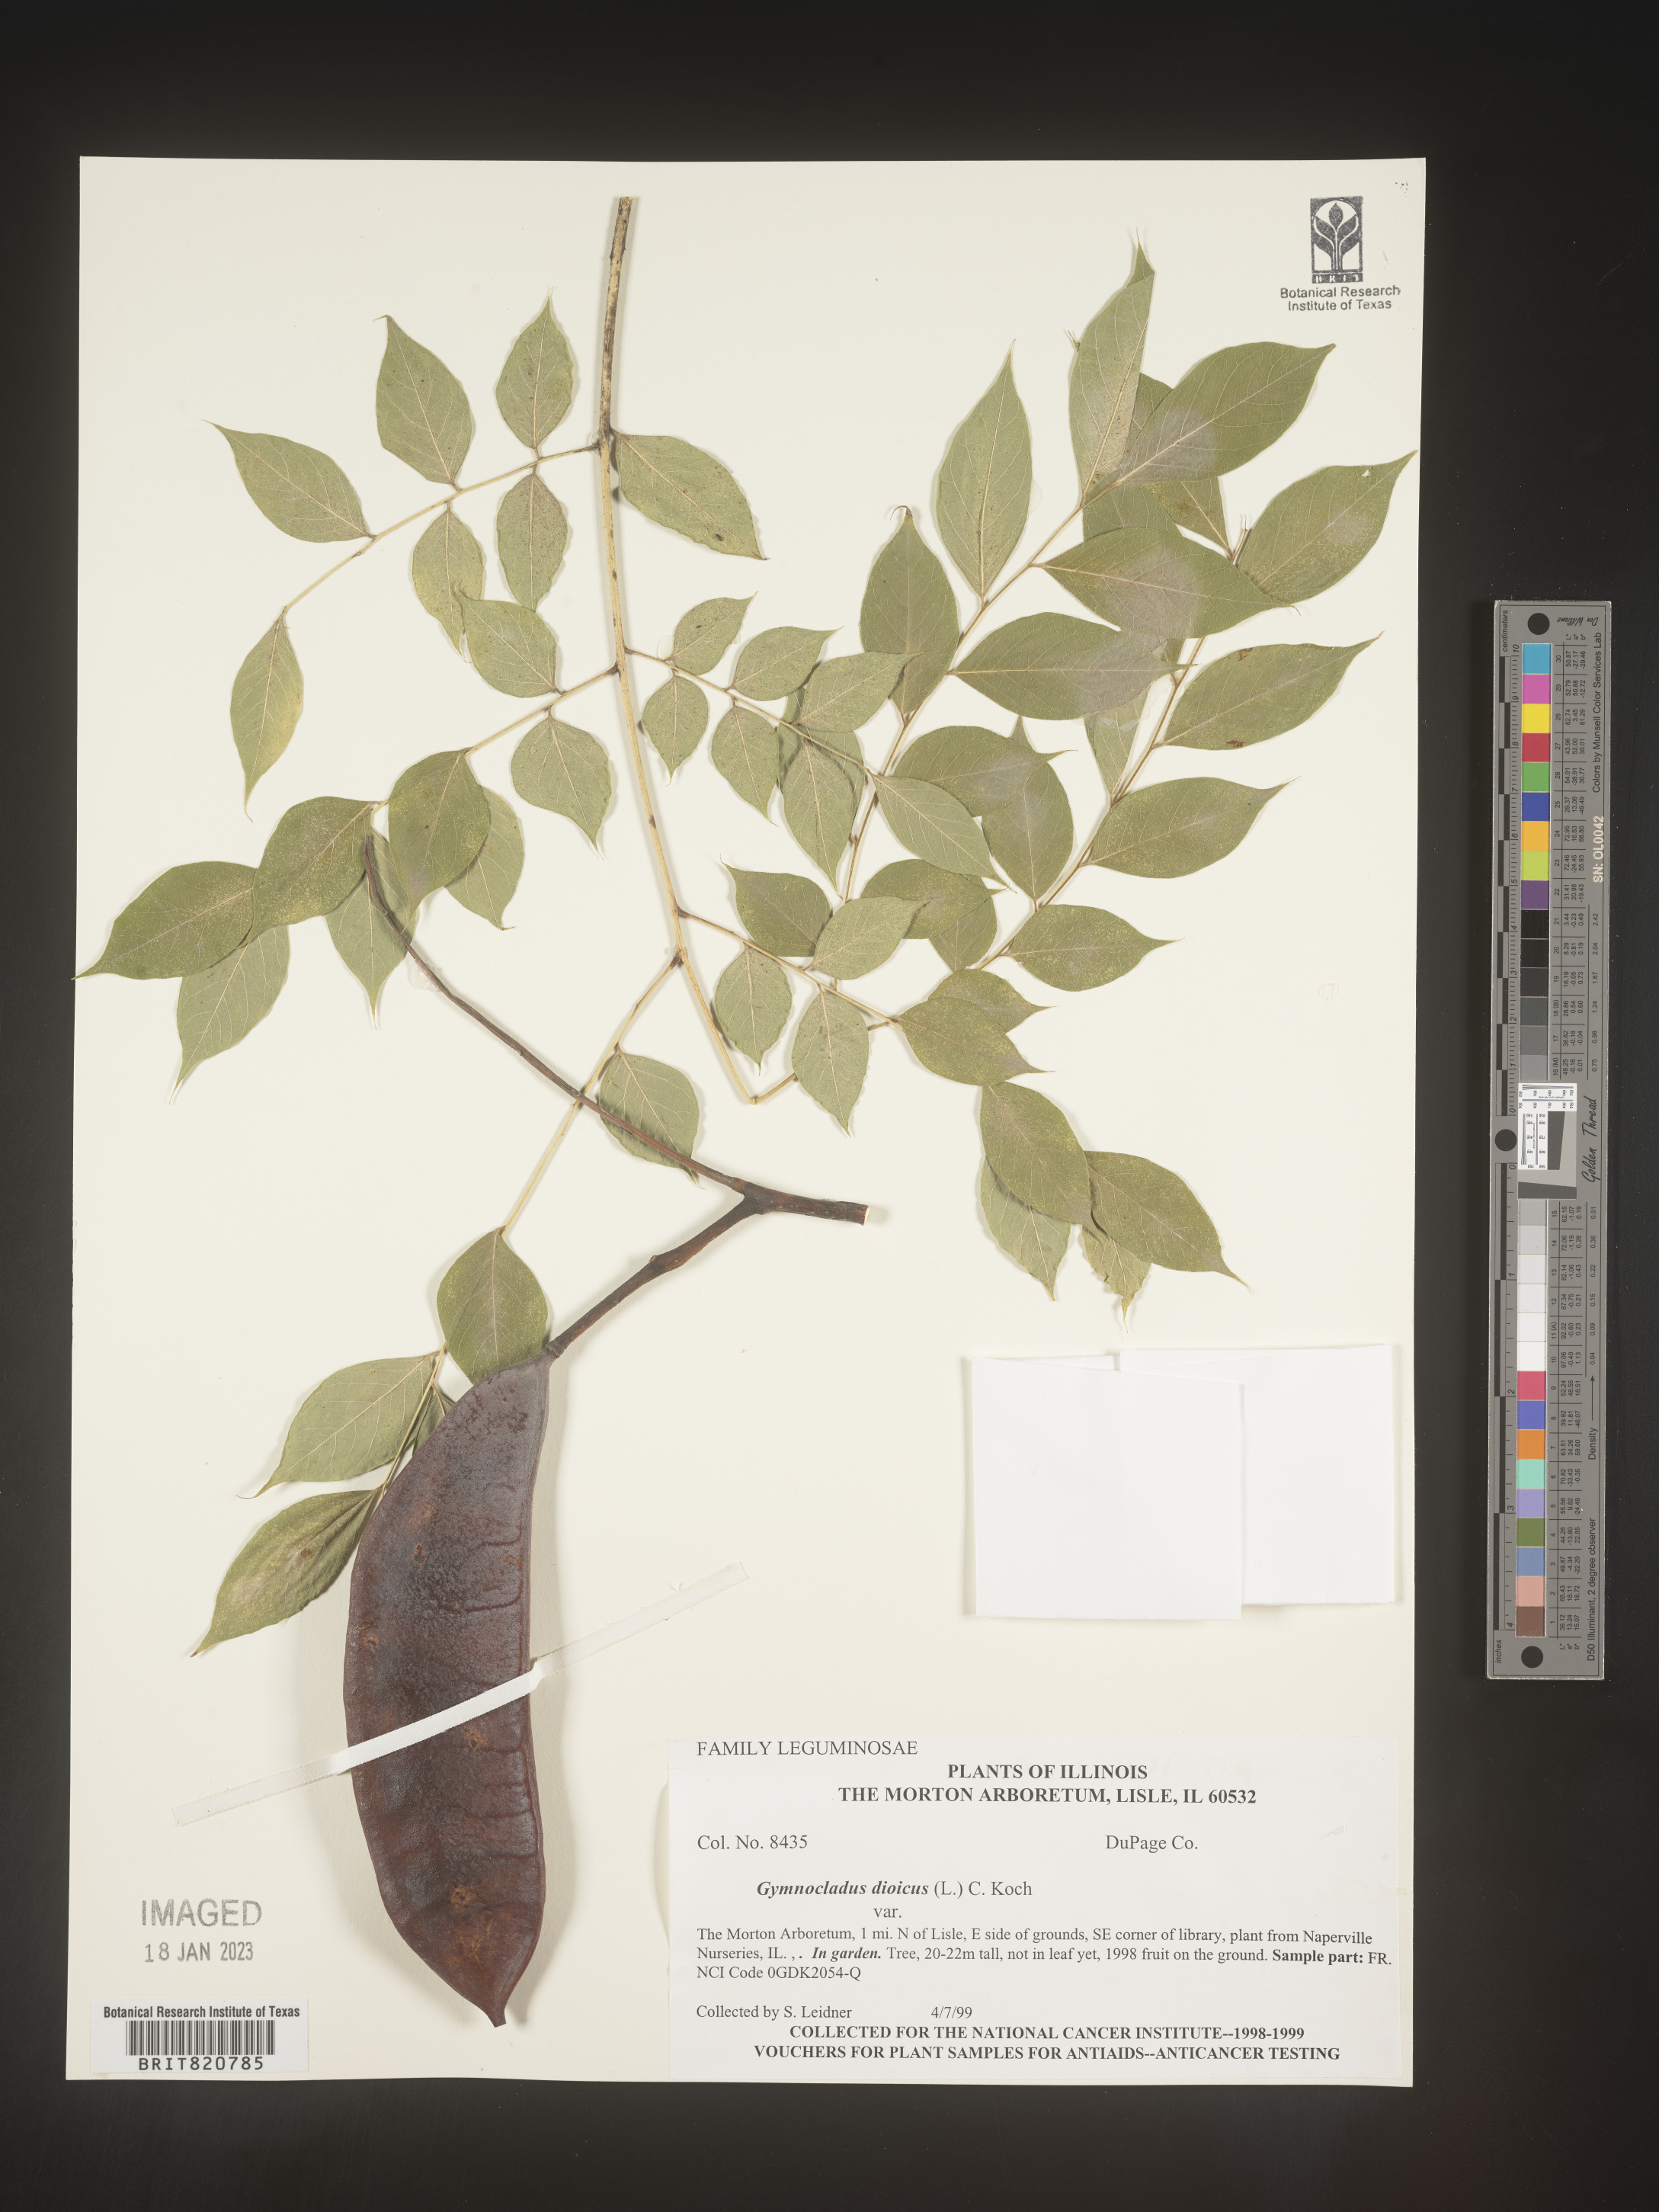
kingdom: Plantae
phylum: Tracheophyta
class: Magnoliopsida
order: Fabales
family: Fabaceae
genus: Gymnocladus
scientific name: Gymnocladus dioicus
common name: Kentucky coffee-tree
